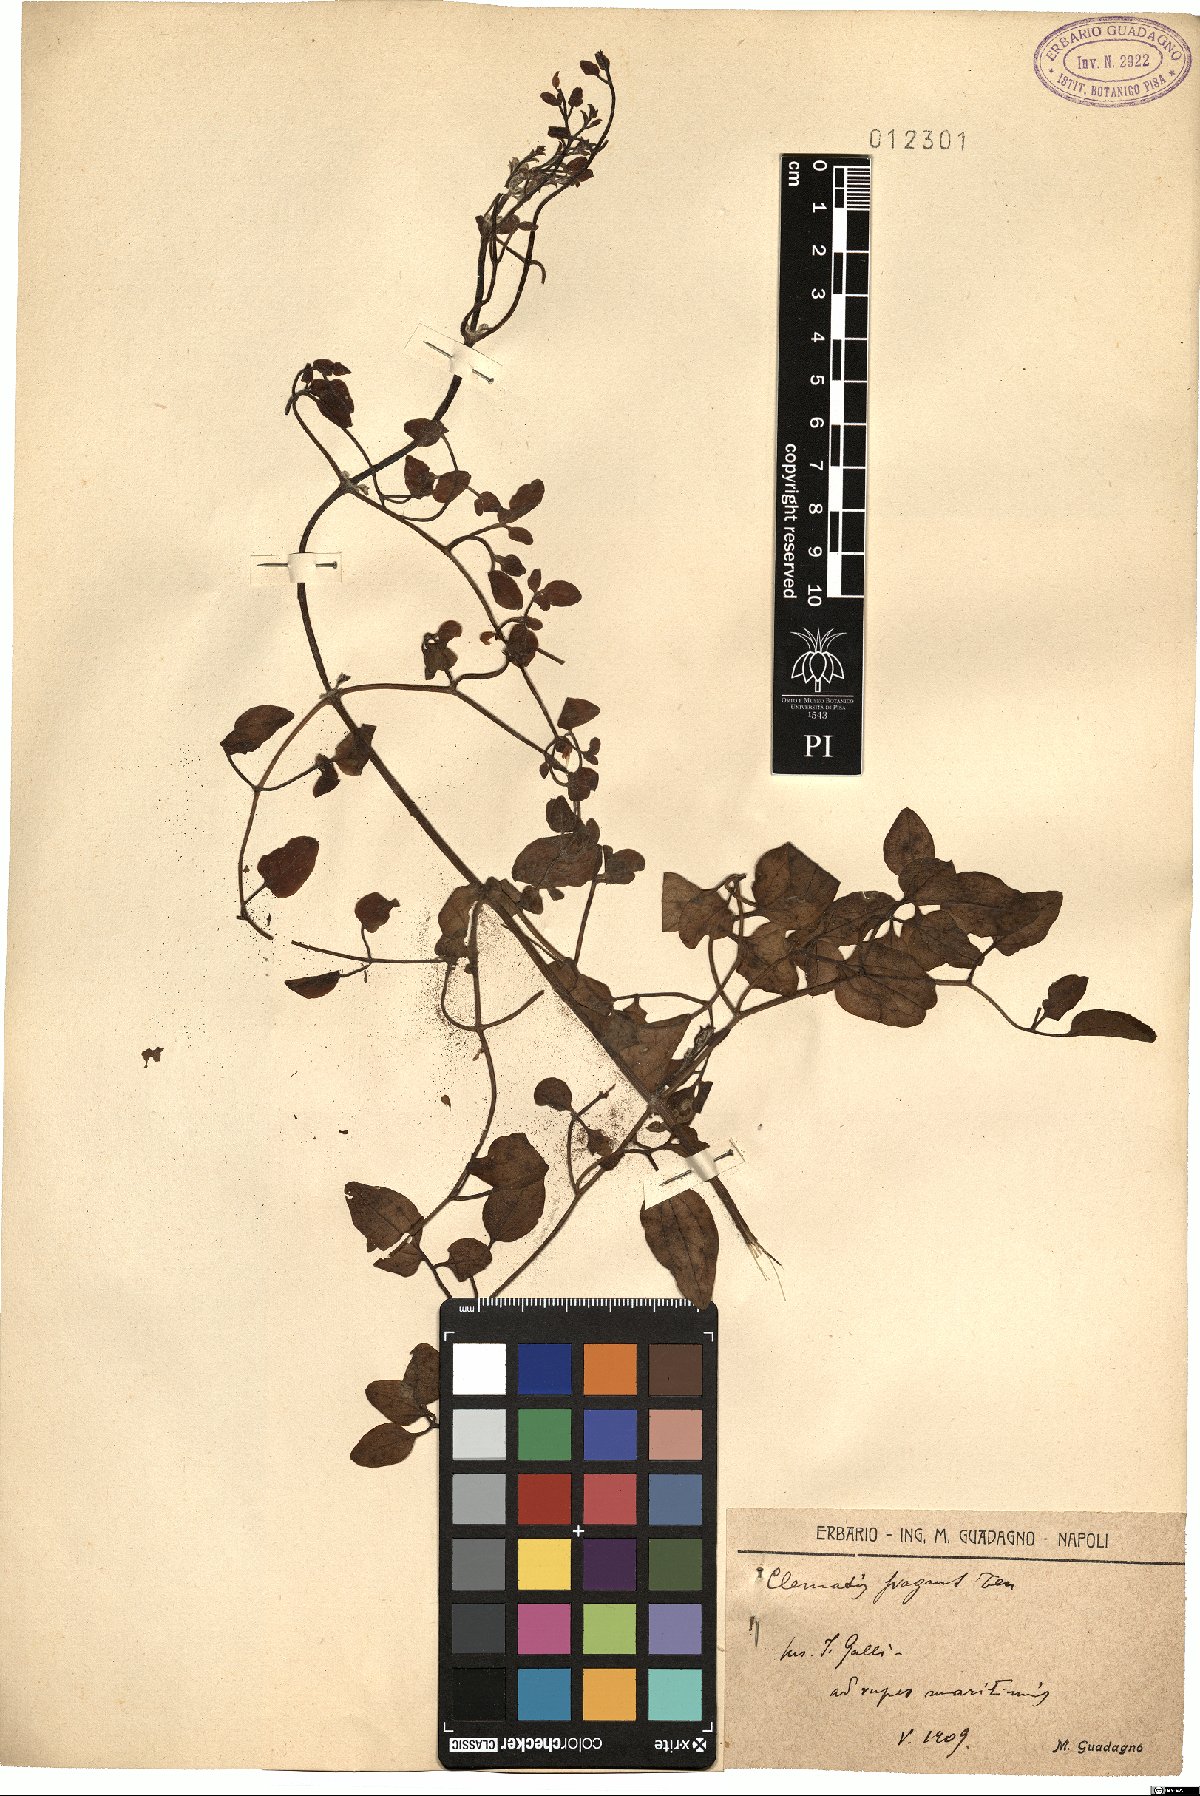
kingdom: Plantae
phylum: Tracheophyta
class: Magnoliopsida
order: Ranunculales
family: Ranunculaceae
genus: Clematis
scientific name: Clematis flammula
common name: Virgin's-bower
